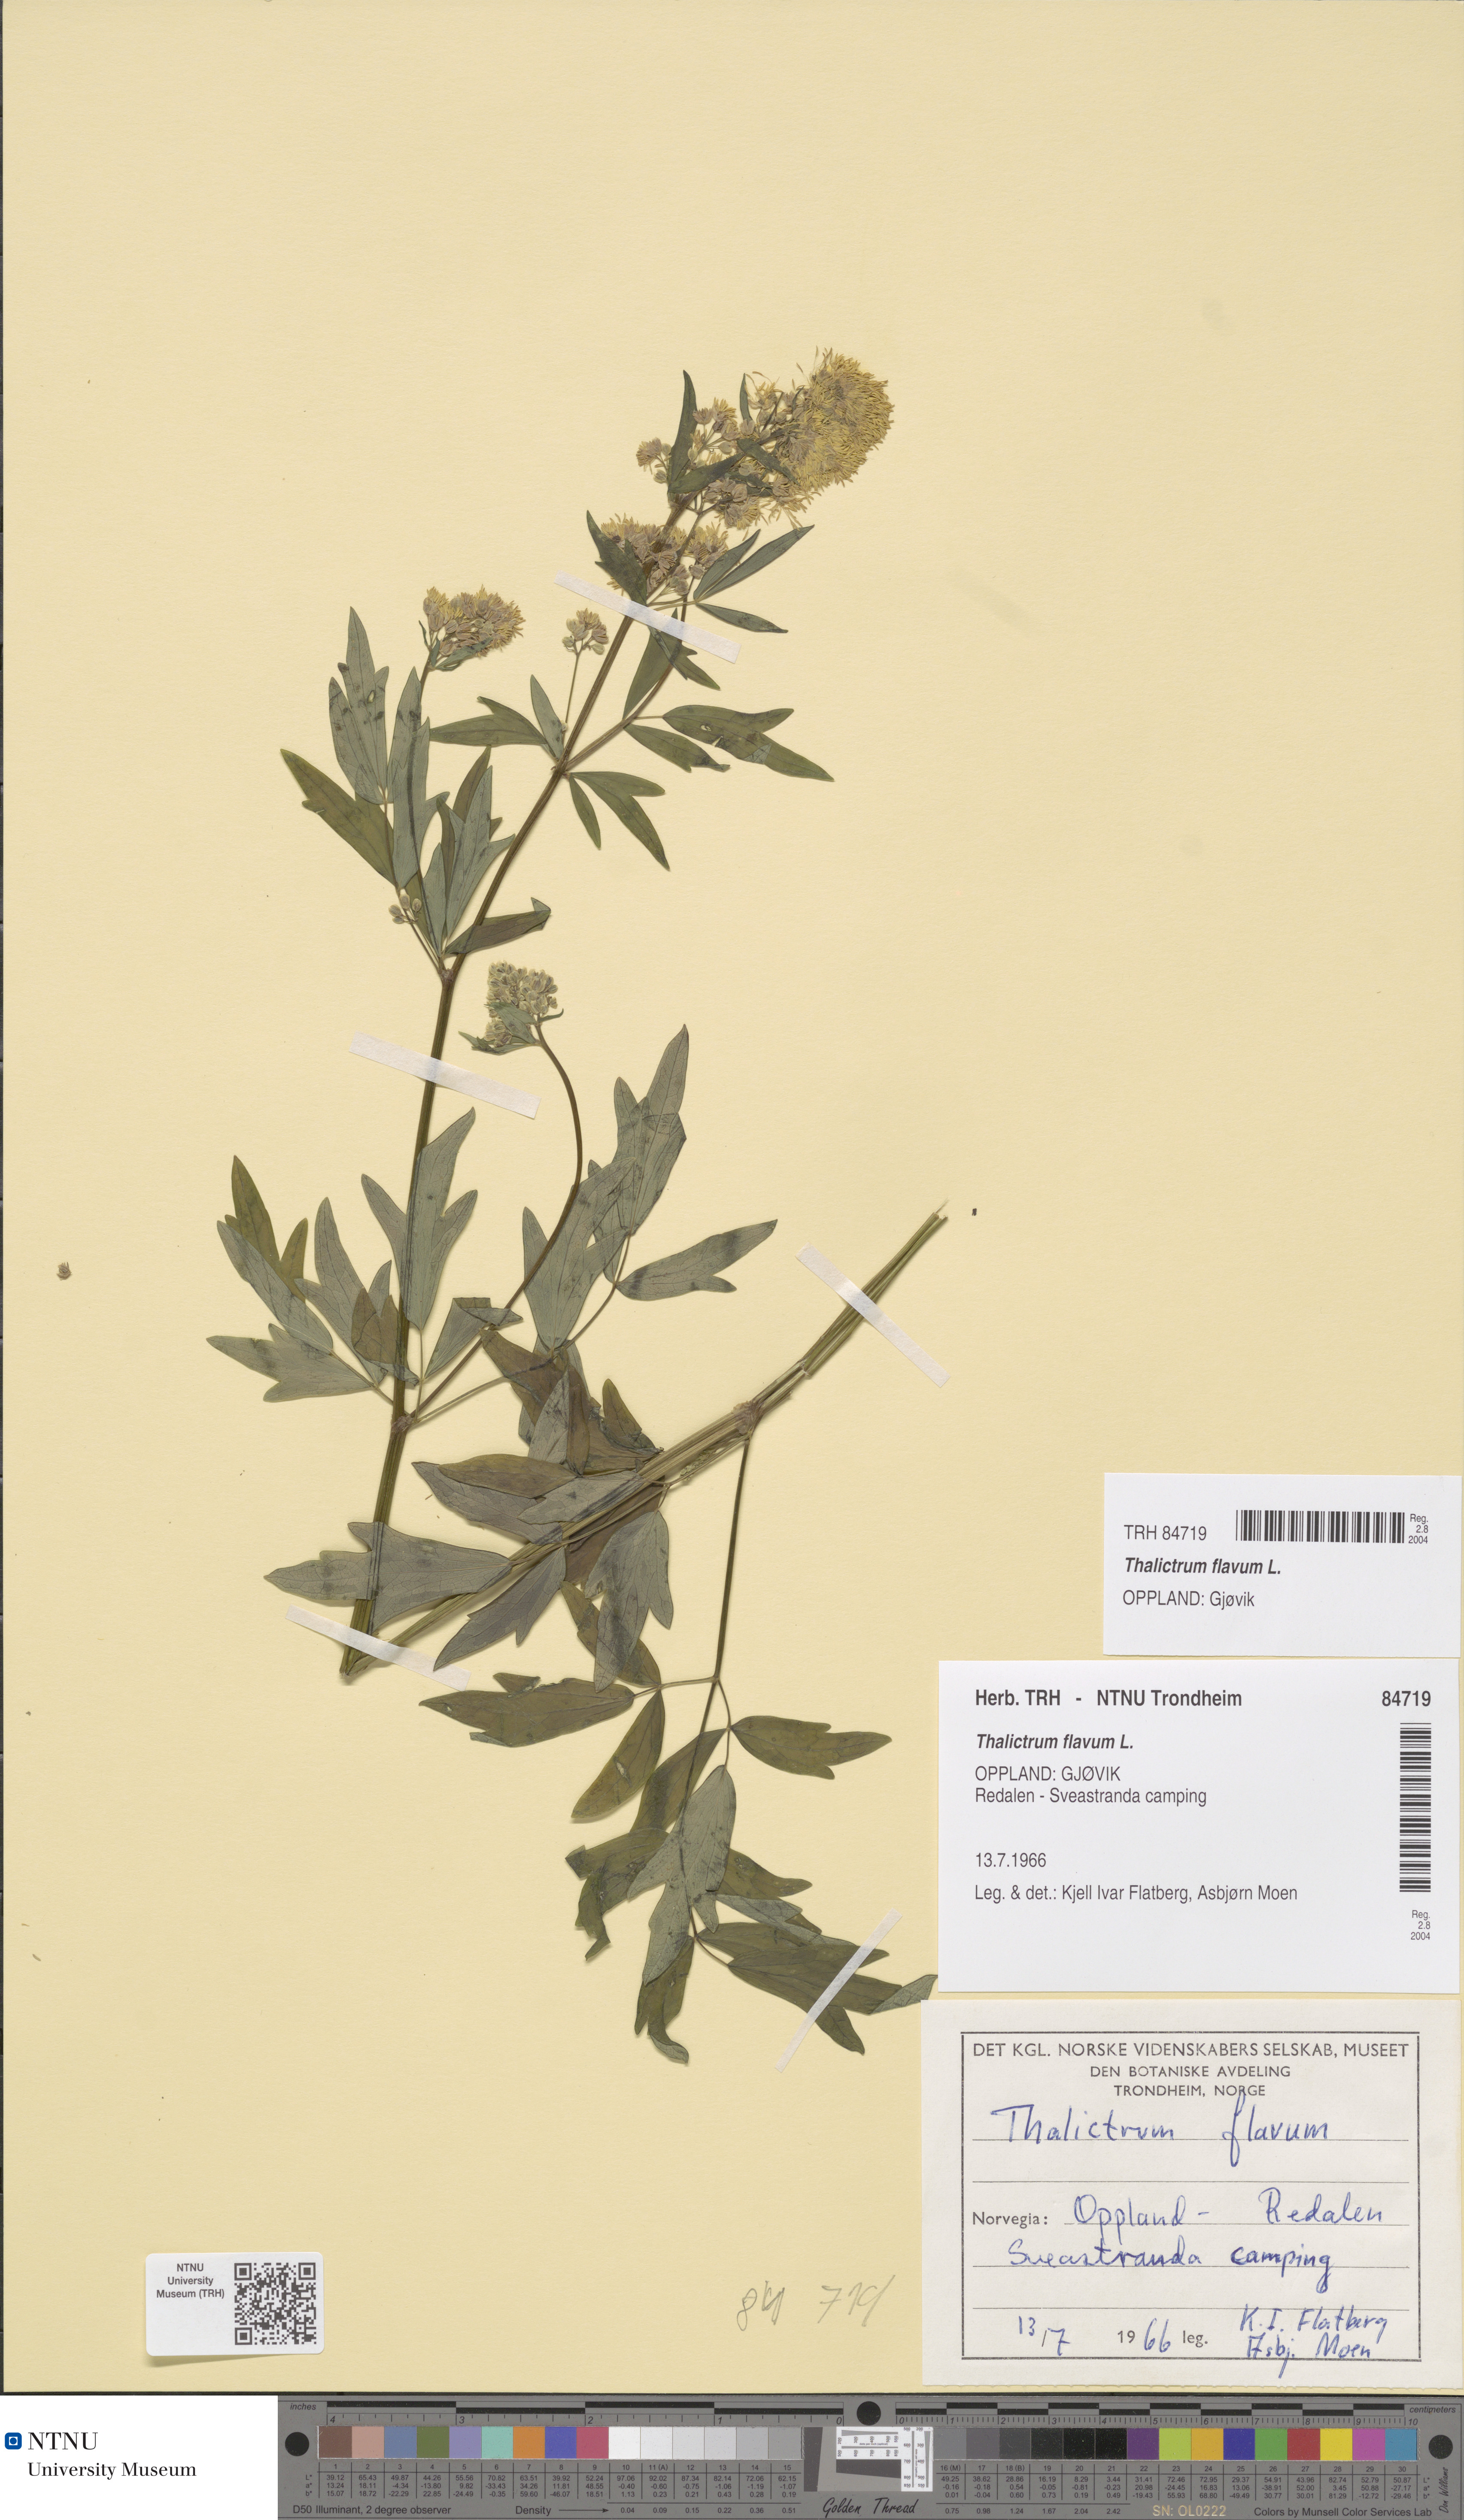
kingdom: Plantae
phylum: Tracheophyta
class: Magnoliopsida
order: Ranunculales
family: Ranunculaceae
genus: Thalictrum
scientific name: Thalictrum flavum
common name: Common meadow-rue
